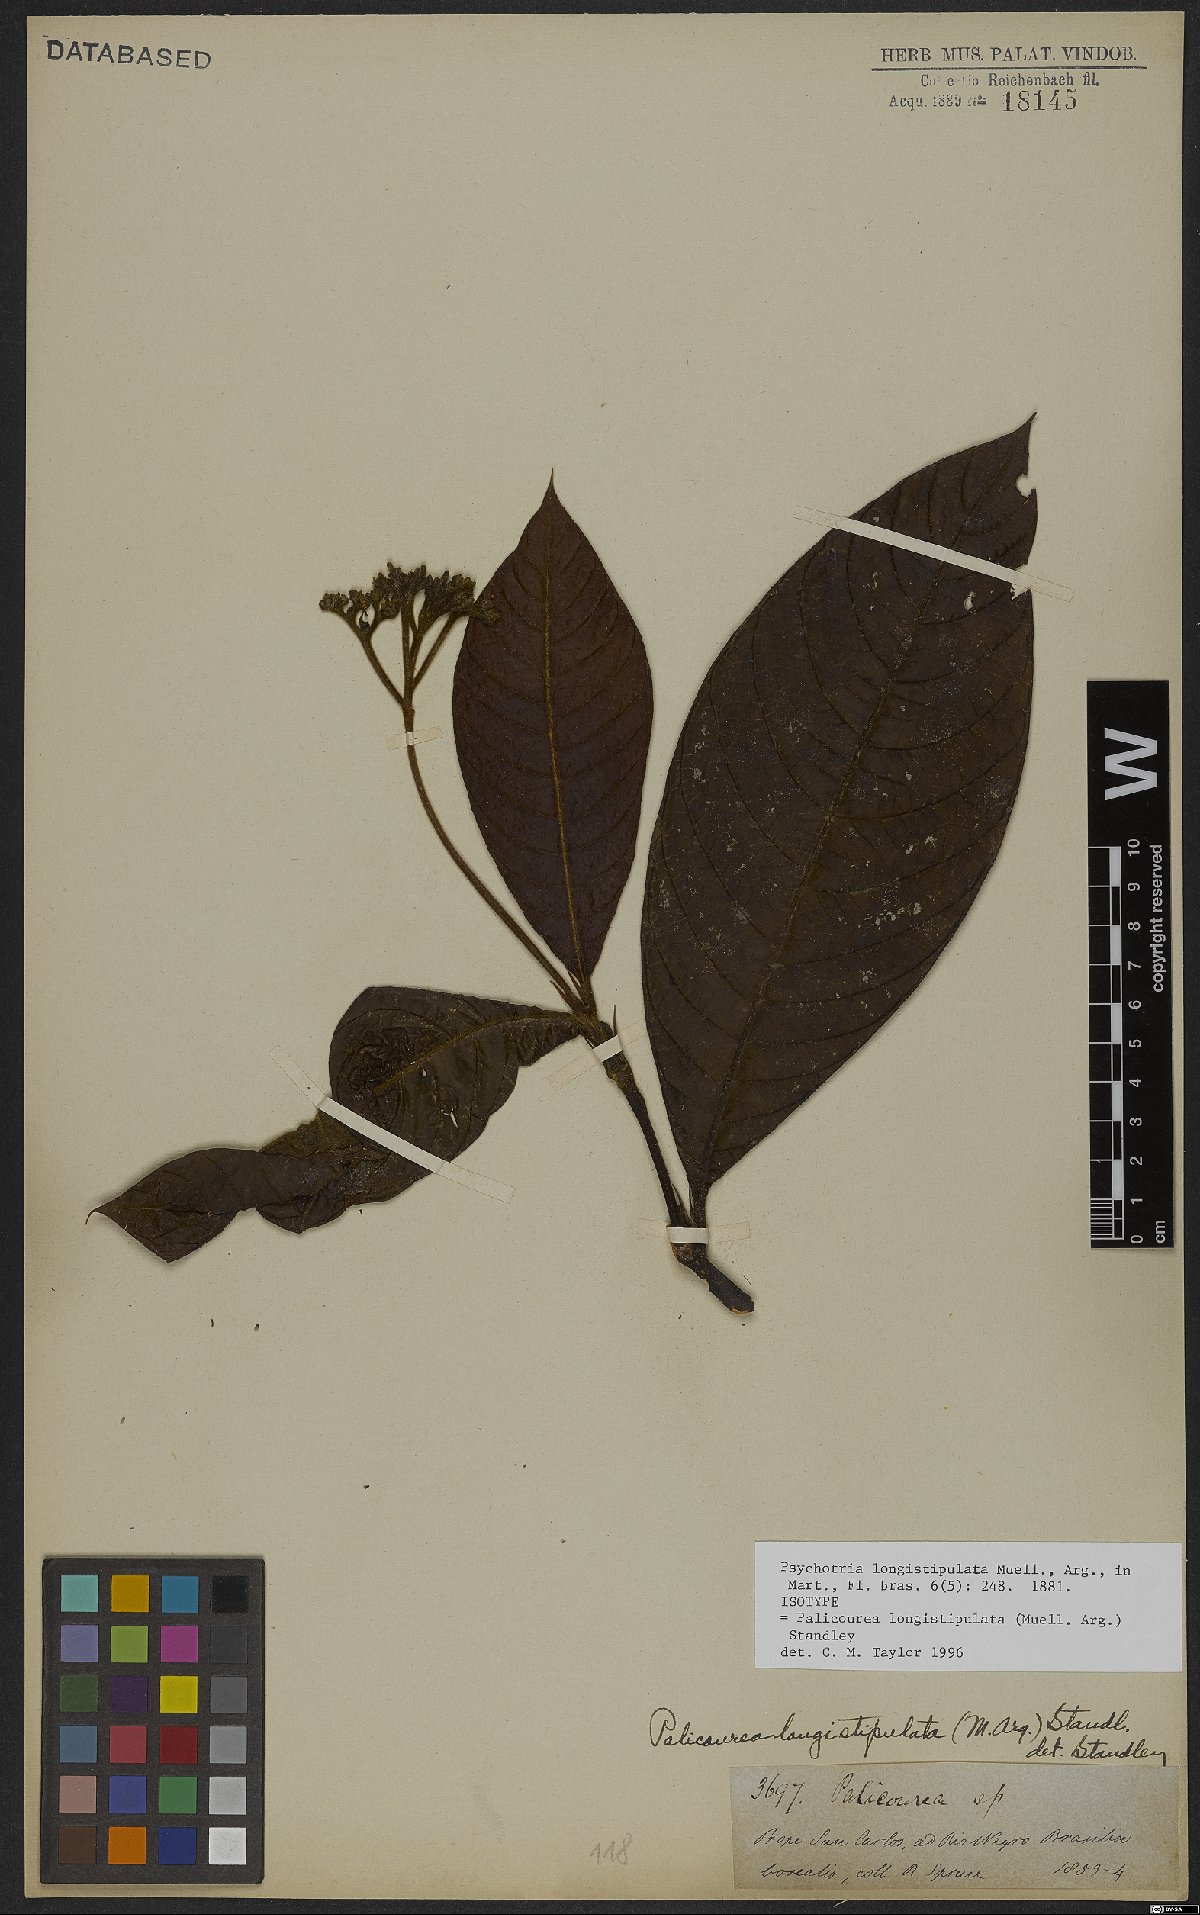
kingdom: Plantae
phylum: Tracheophyta
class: Magnoliopsida
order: Gentianales
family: Rubiaceae
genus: Palicourea
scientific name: Palicourea longistipulata
